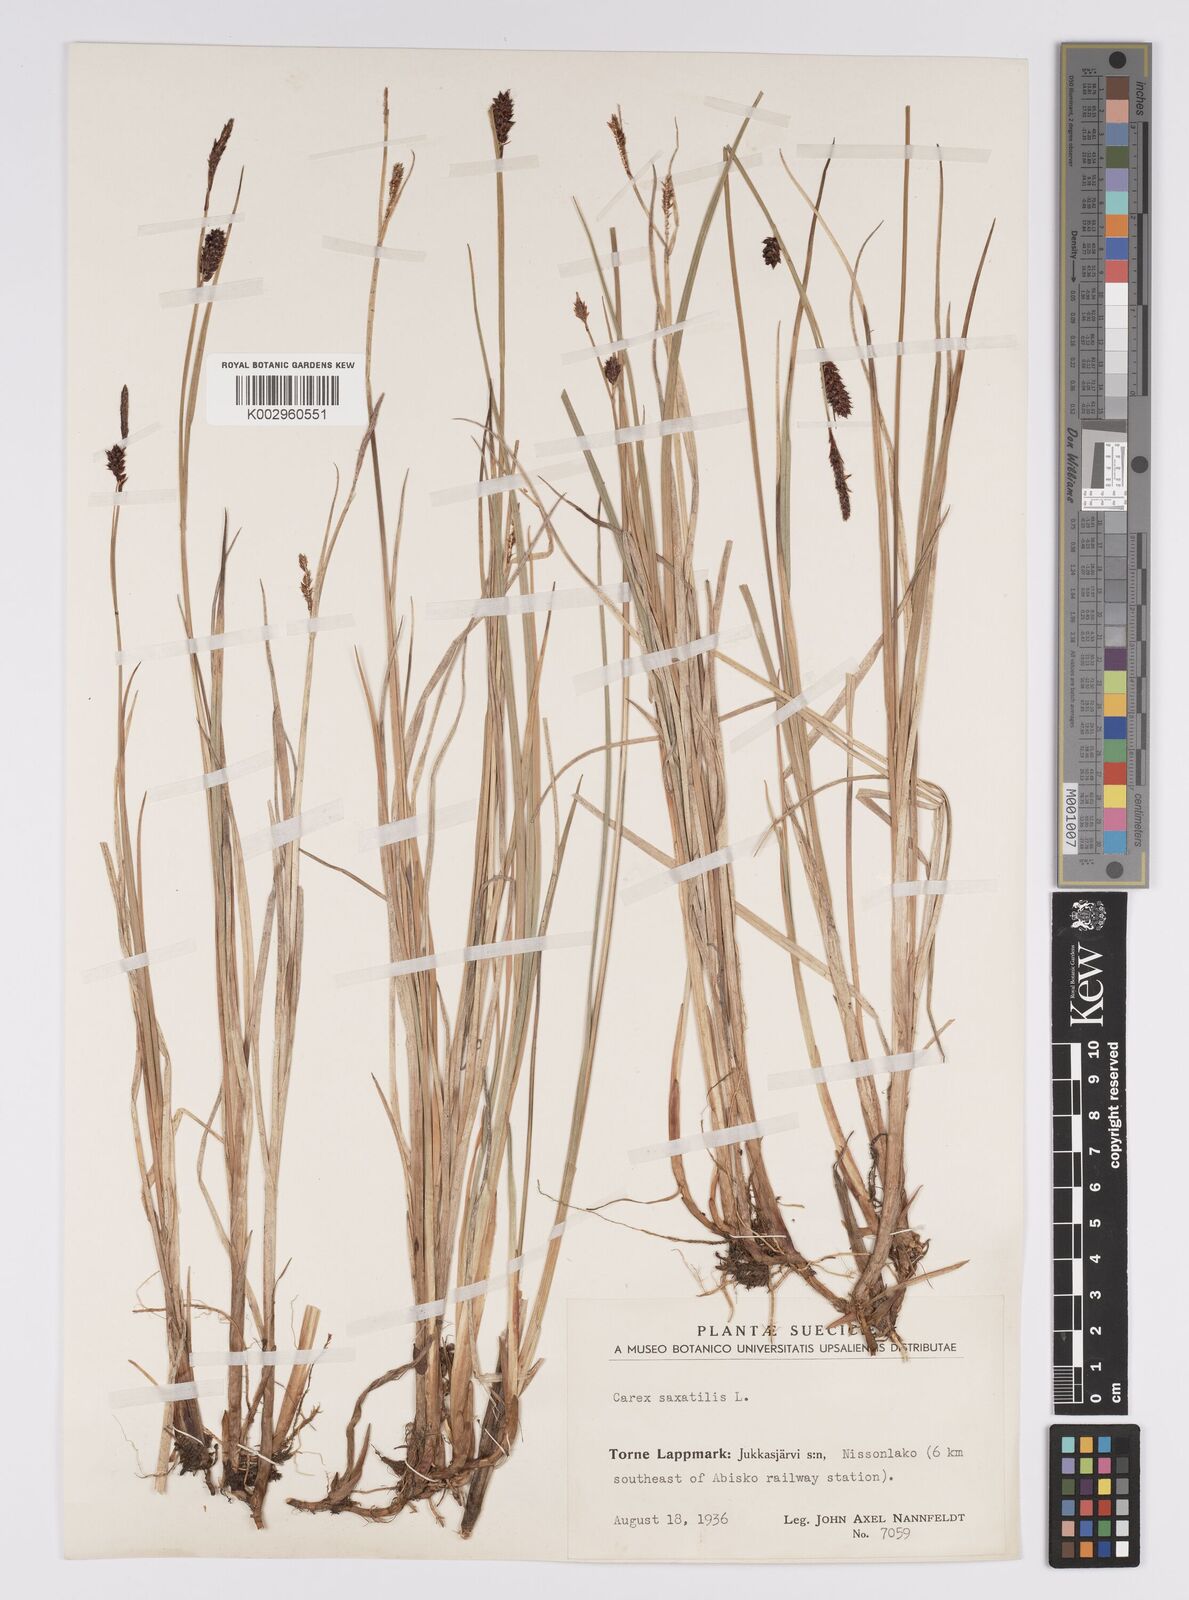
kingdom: Plantae
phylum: Tracheophyta
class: Liliopsida
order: Poales
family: Cyperaceae
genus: Carex
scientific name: Carex saxatilis
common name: Russet sedge
